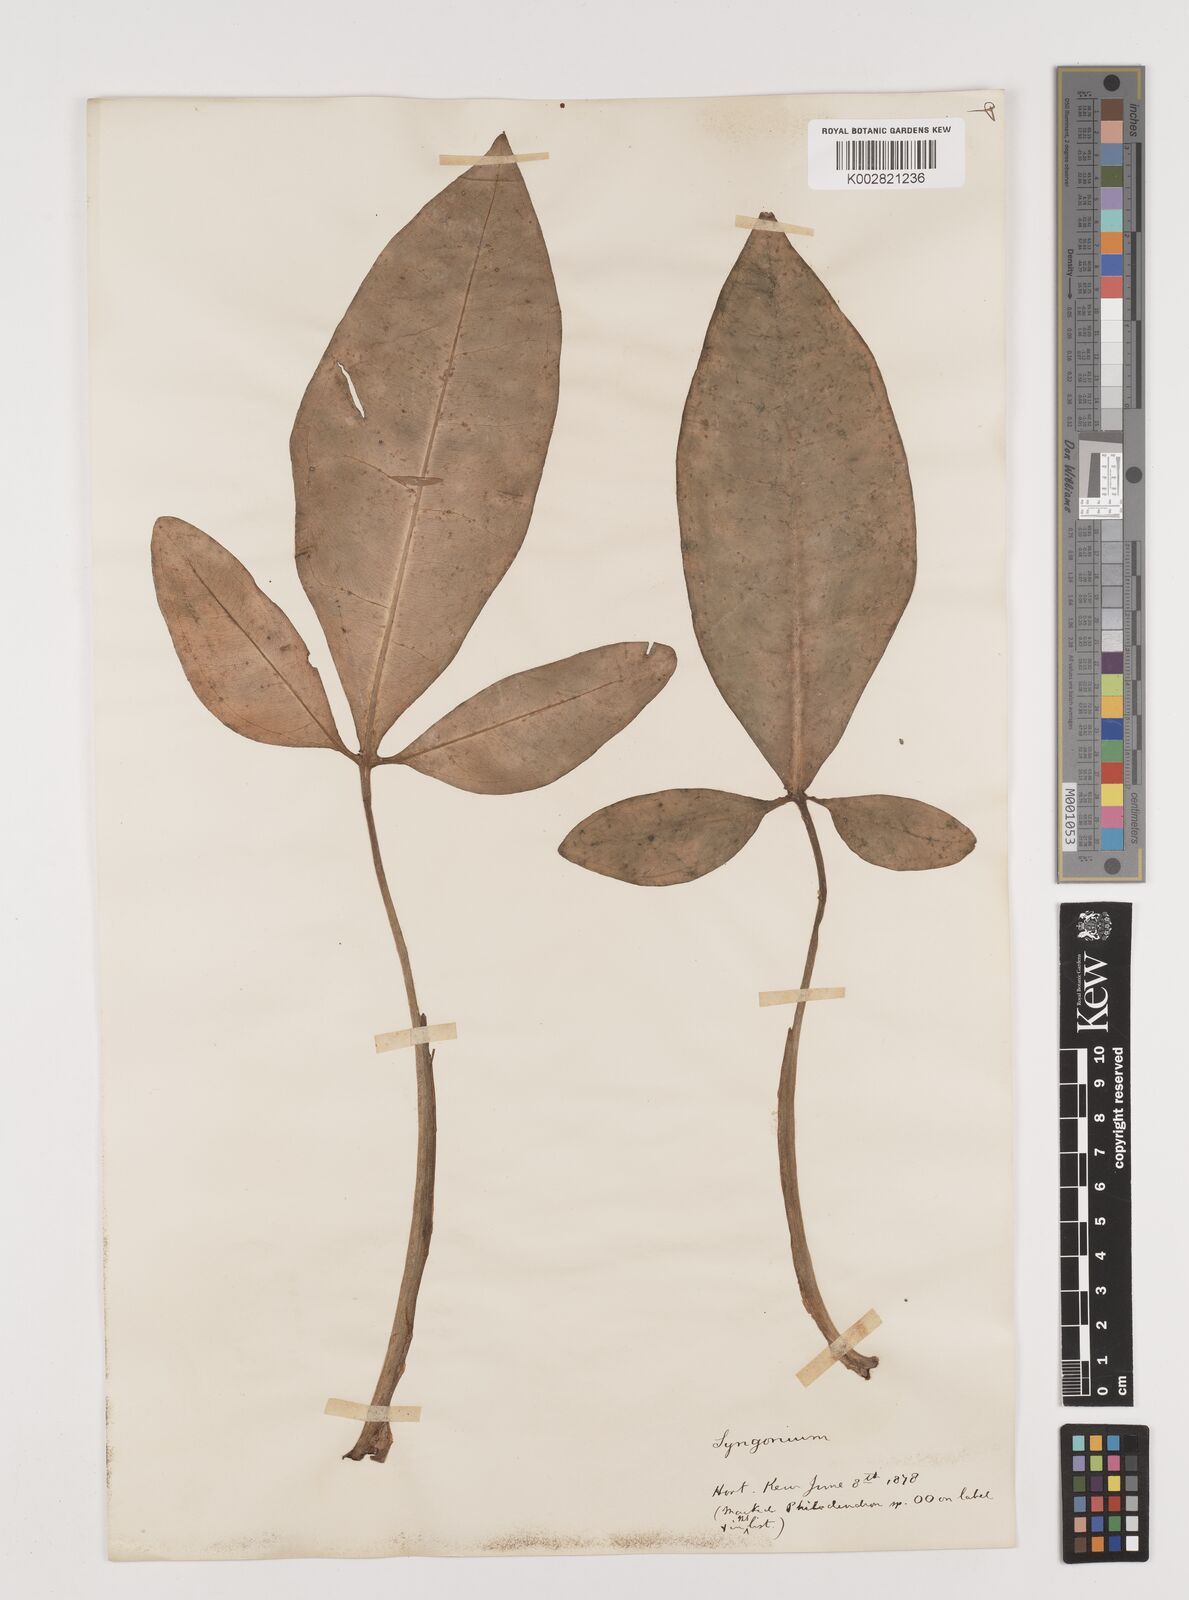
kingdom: Plantae
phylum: Tracheophyta
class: Liliopsida
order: Alismatales
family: Araceae
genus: Syngonium
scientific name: Syngonium auritum
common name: Five-fingers
